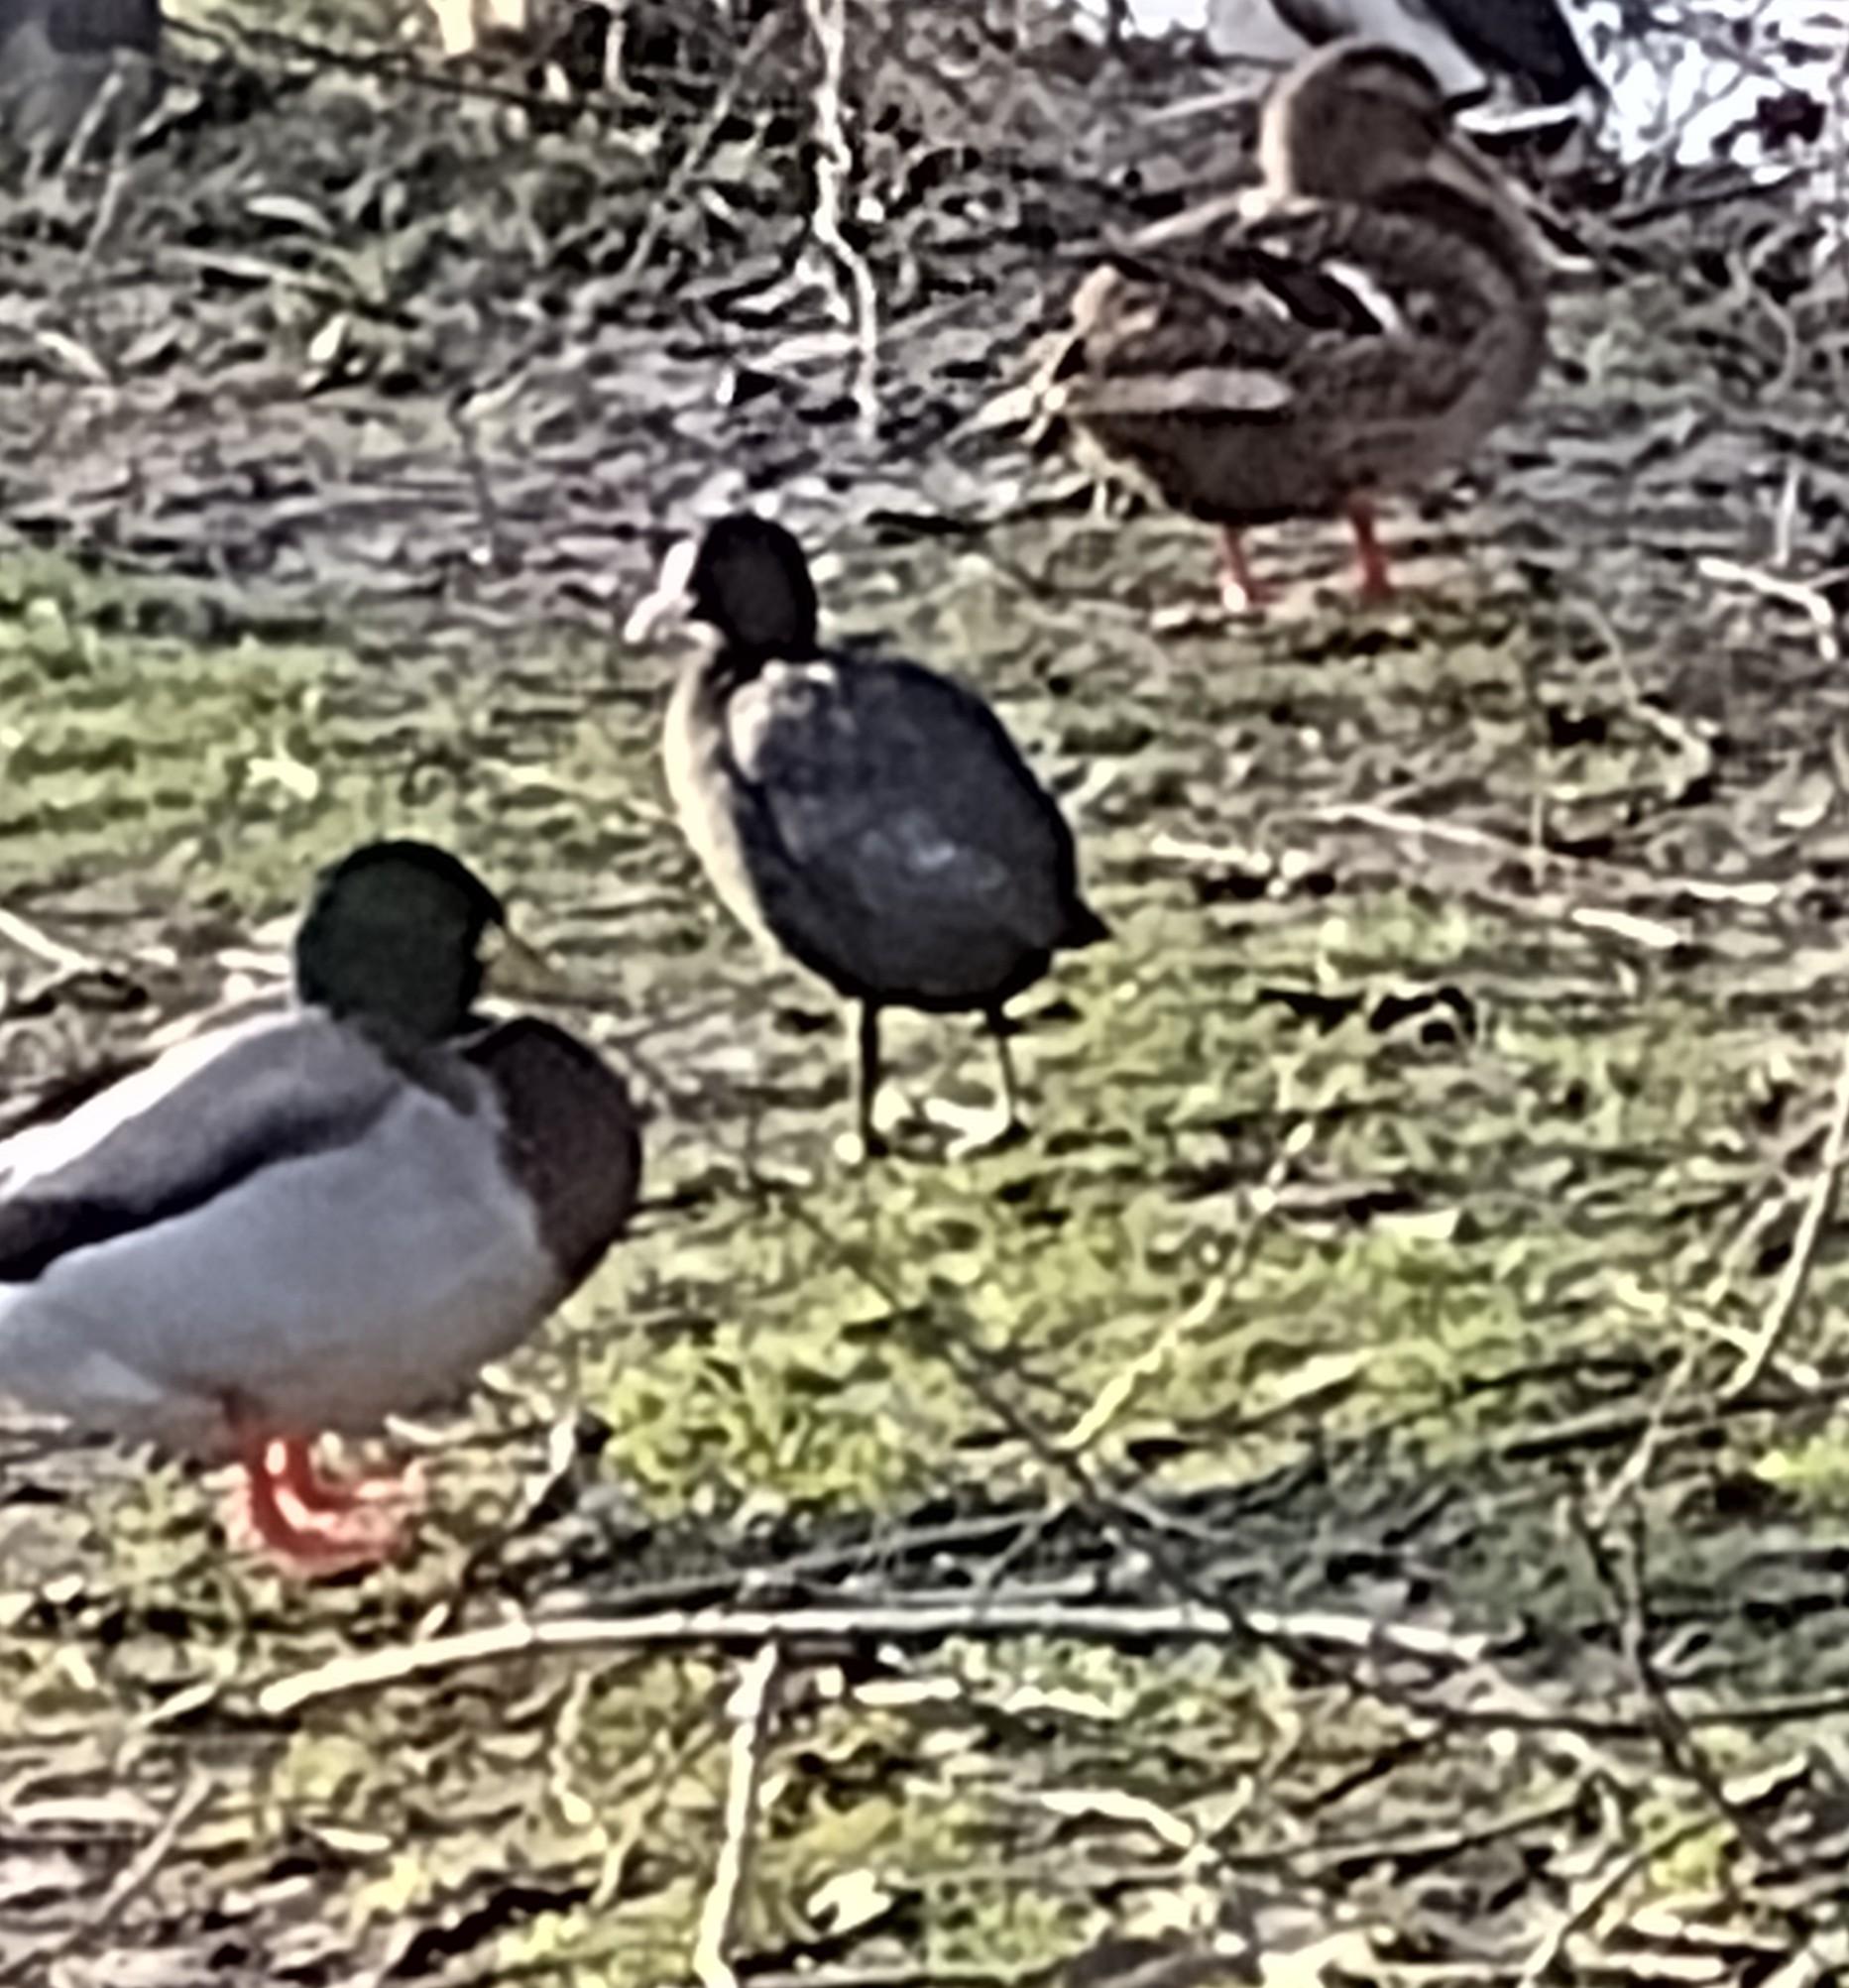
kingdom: Animalia
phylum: Chordata
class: Aves
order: Gruiformes
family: Rallidae
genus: Fulica
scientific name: Fulica atra
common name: Blishøne
